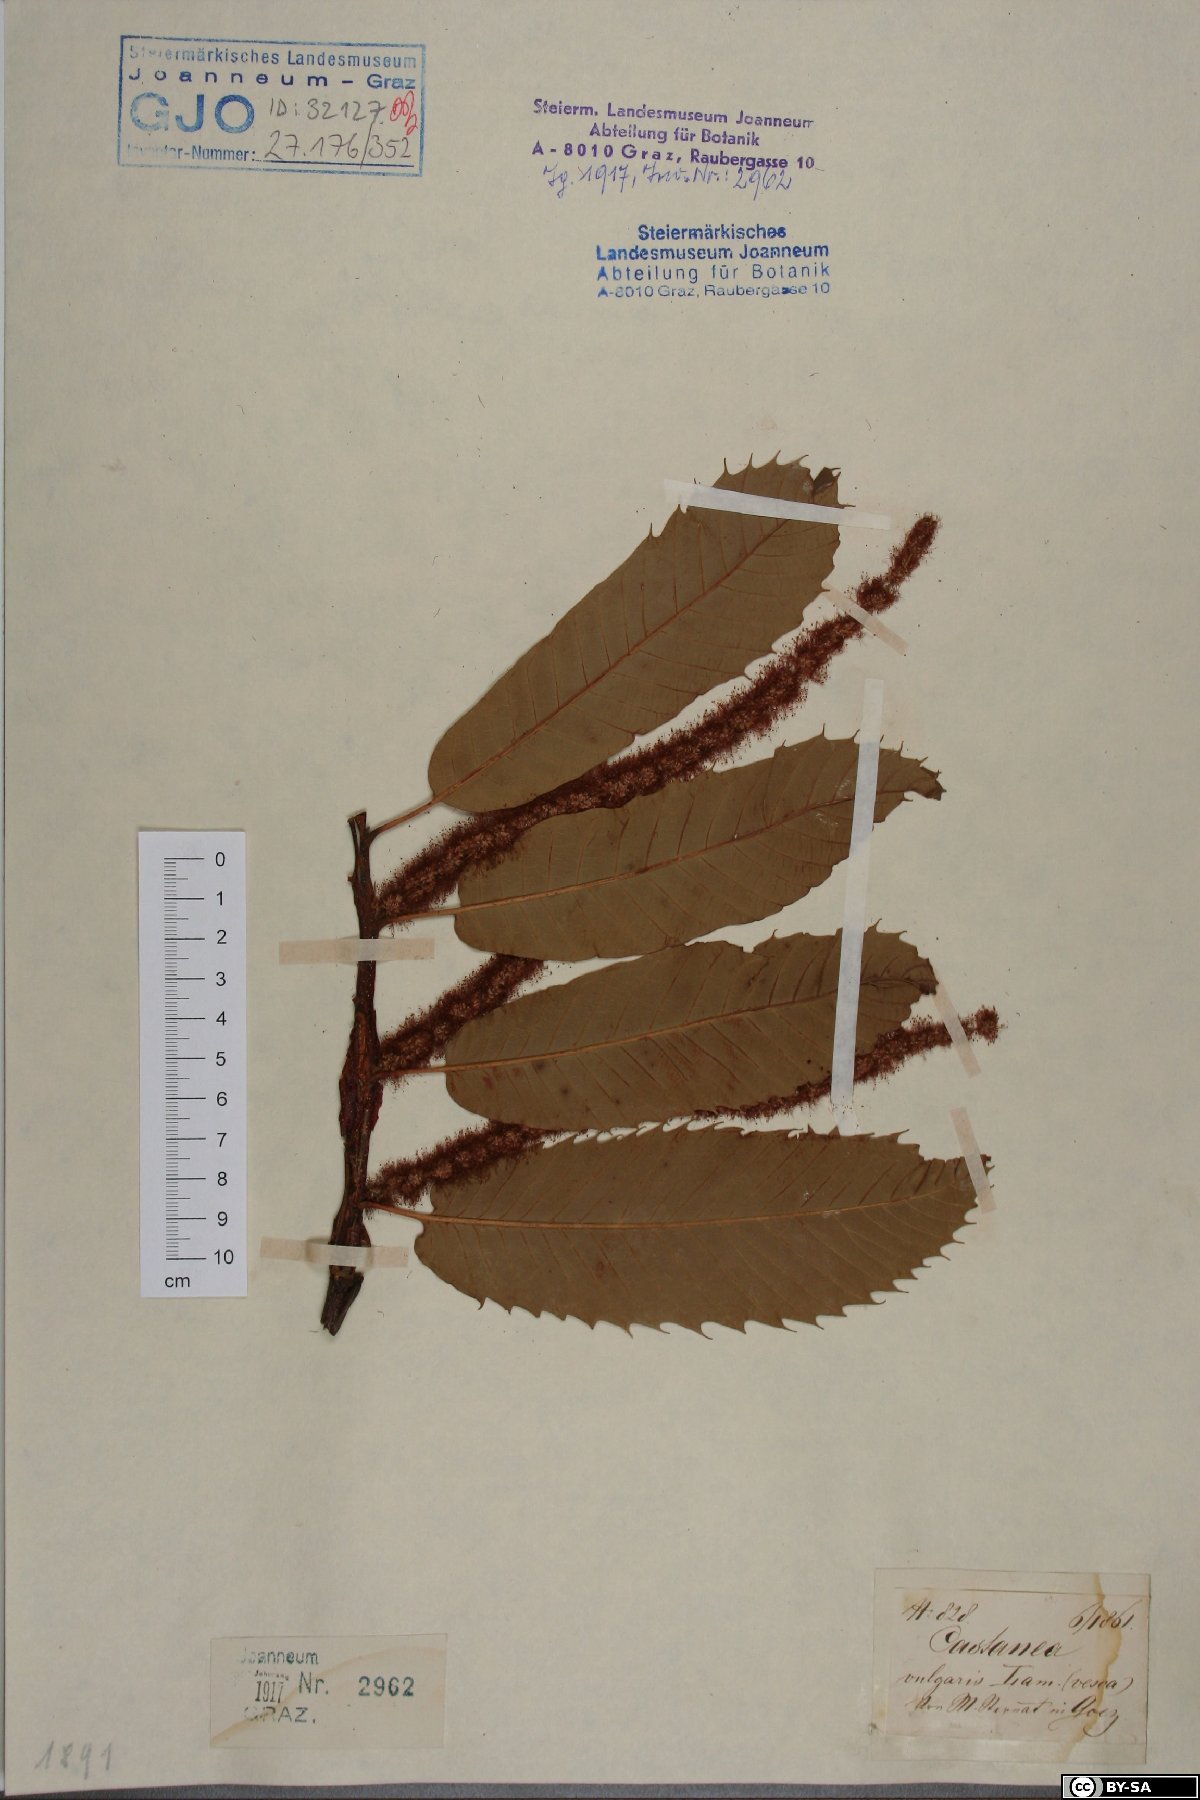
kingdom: Plantae
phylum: Tracheophyta
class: Magnoliopsida
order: Fagales
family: Fagaceae
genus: Castanea
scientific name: Castanea sativa
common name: Sweet chestnut
